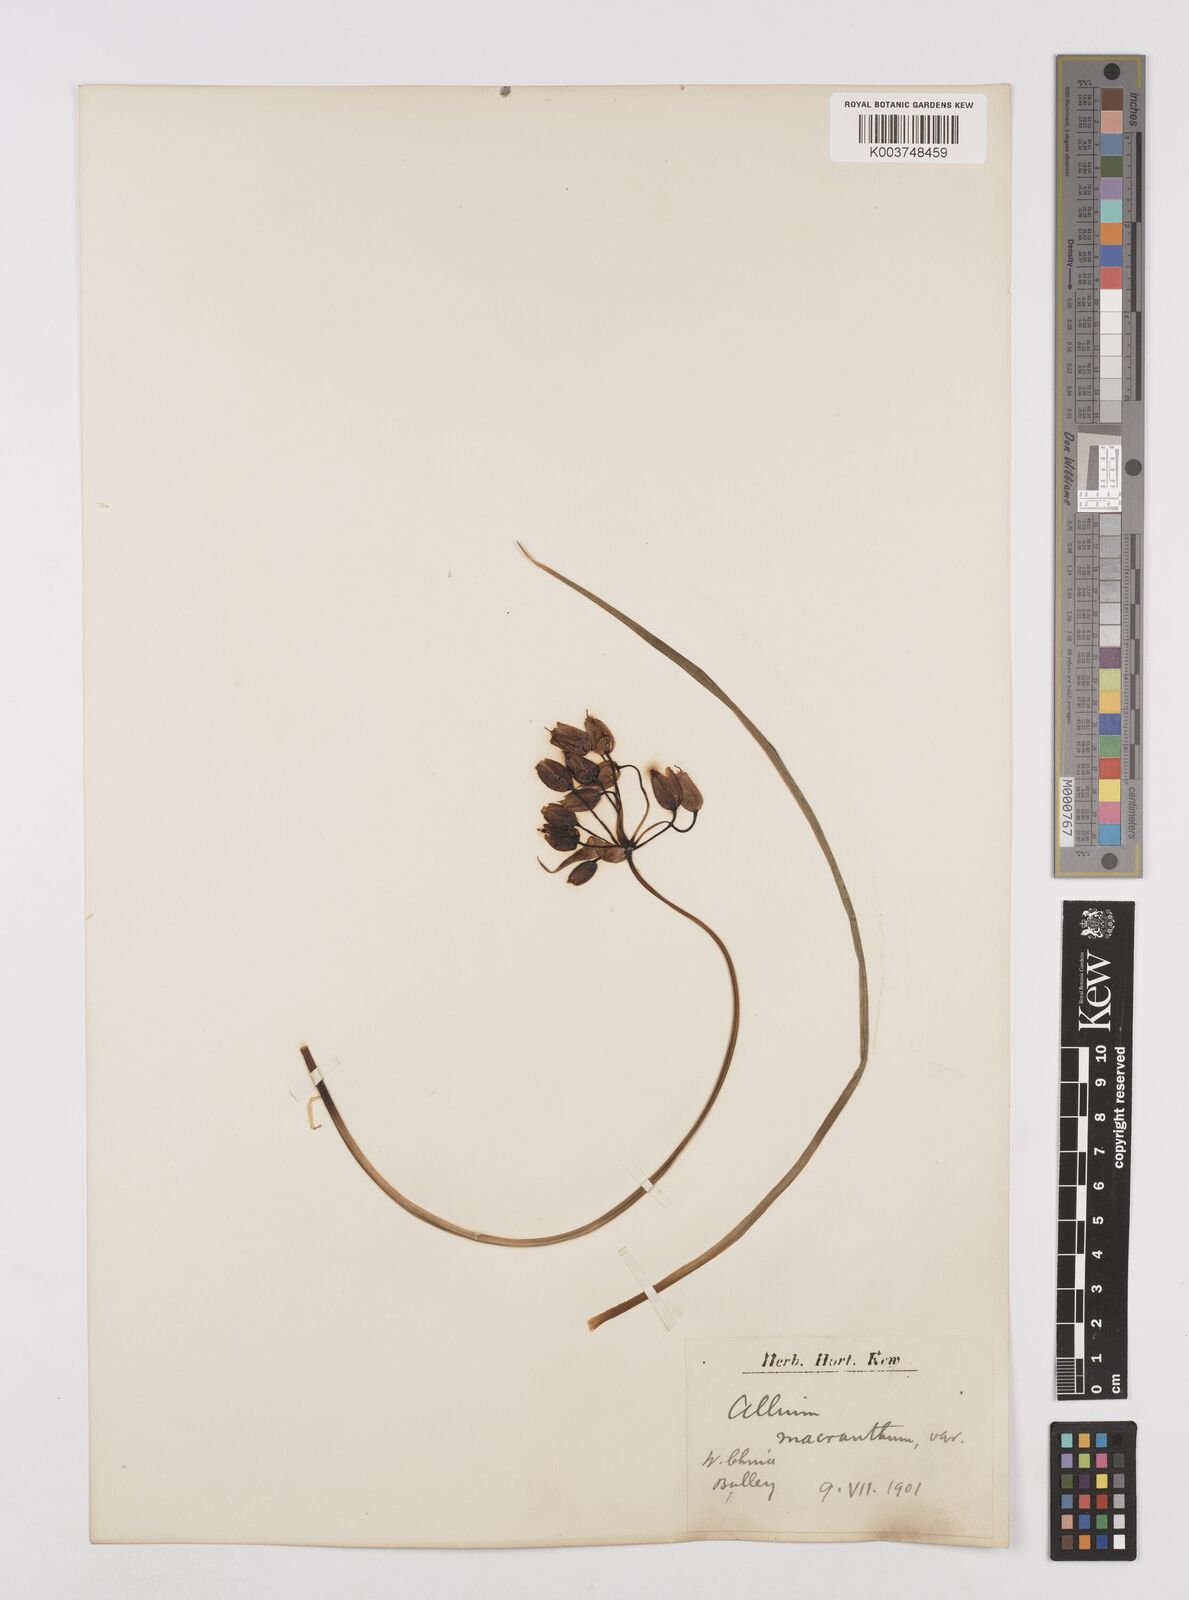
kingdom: Plantae
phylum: Tracheophyta
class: Liliopsida
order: Asparagales
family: Amaryllidaceae
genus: Allium
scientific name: Allium macranthum
